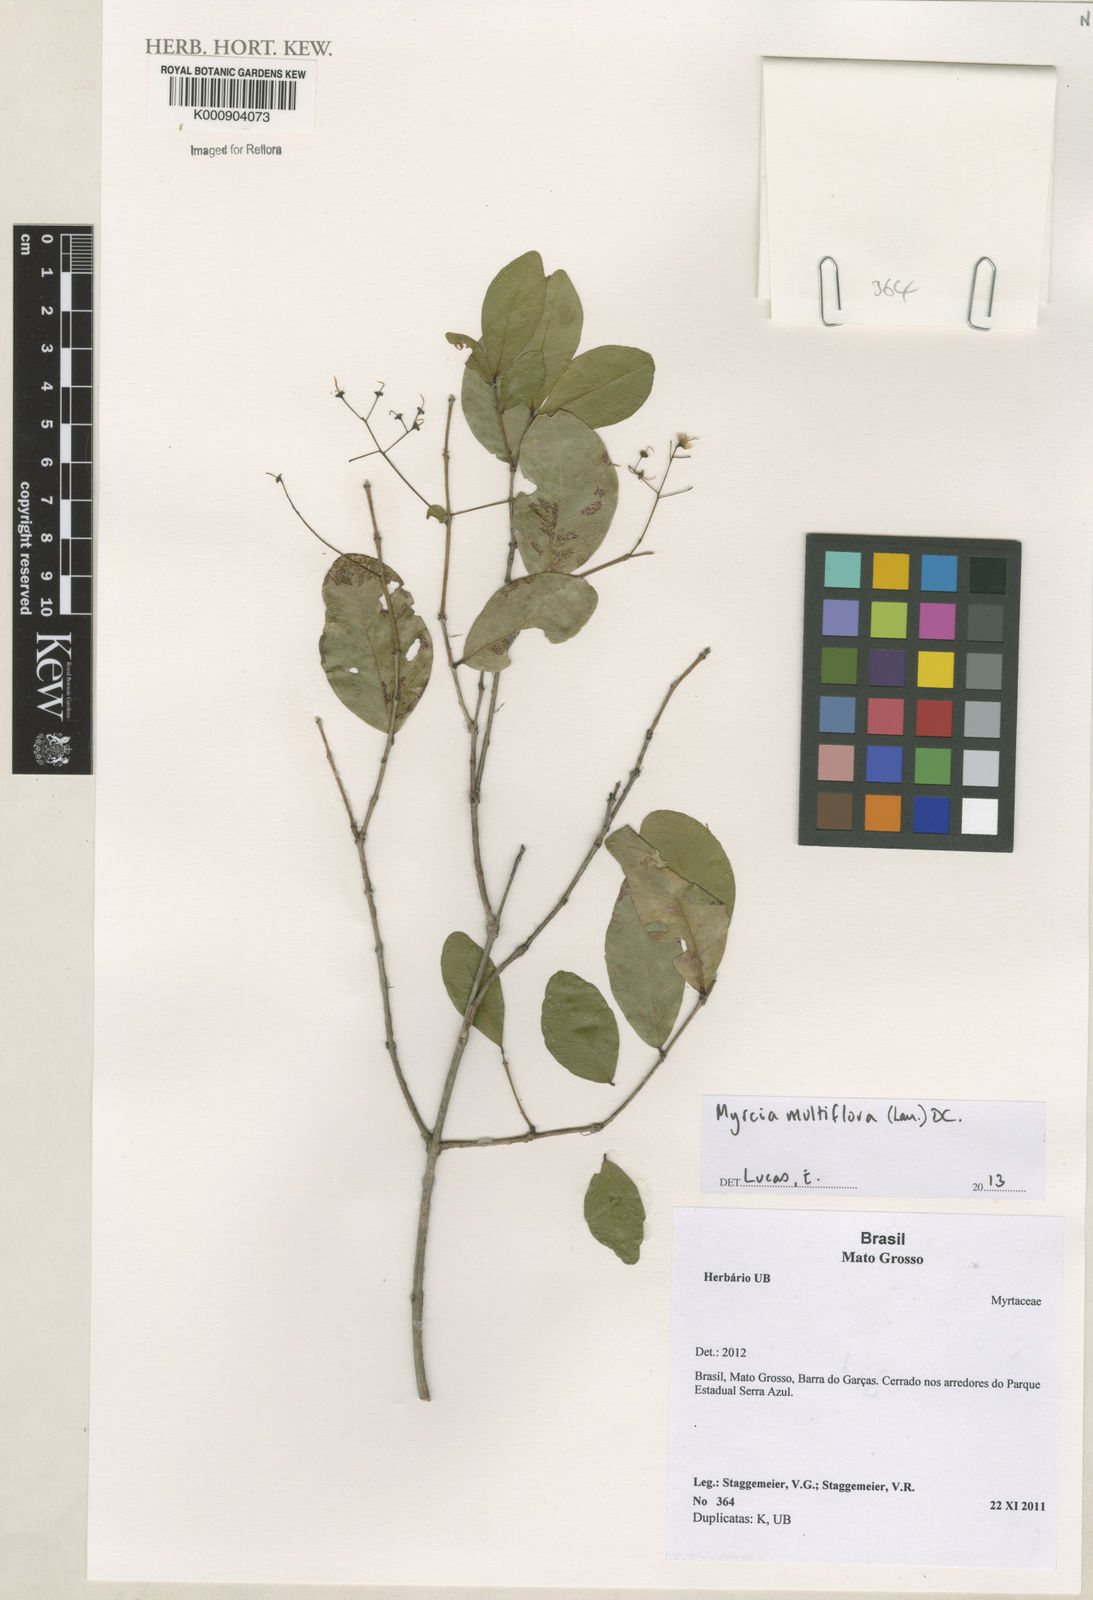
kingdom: Plantae
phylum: Tracheophyta
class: Magnoliopsida
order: Myrtales
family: Myrtaceae
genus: Myrcia
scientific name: Myrcia multiflora
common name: Pedra hume
